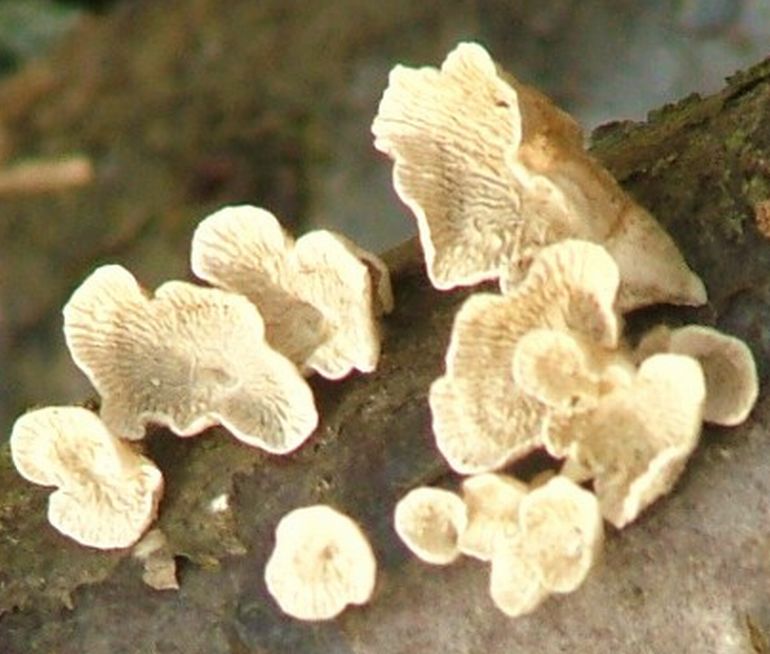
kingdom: Fungi
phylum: Basidiomycota
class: Agaricomycetes
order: Amylocorticiales
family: Amylocorticiaceae
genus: Plicaturopsis
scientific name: Plicaturopsis crispa
